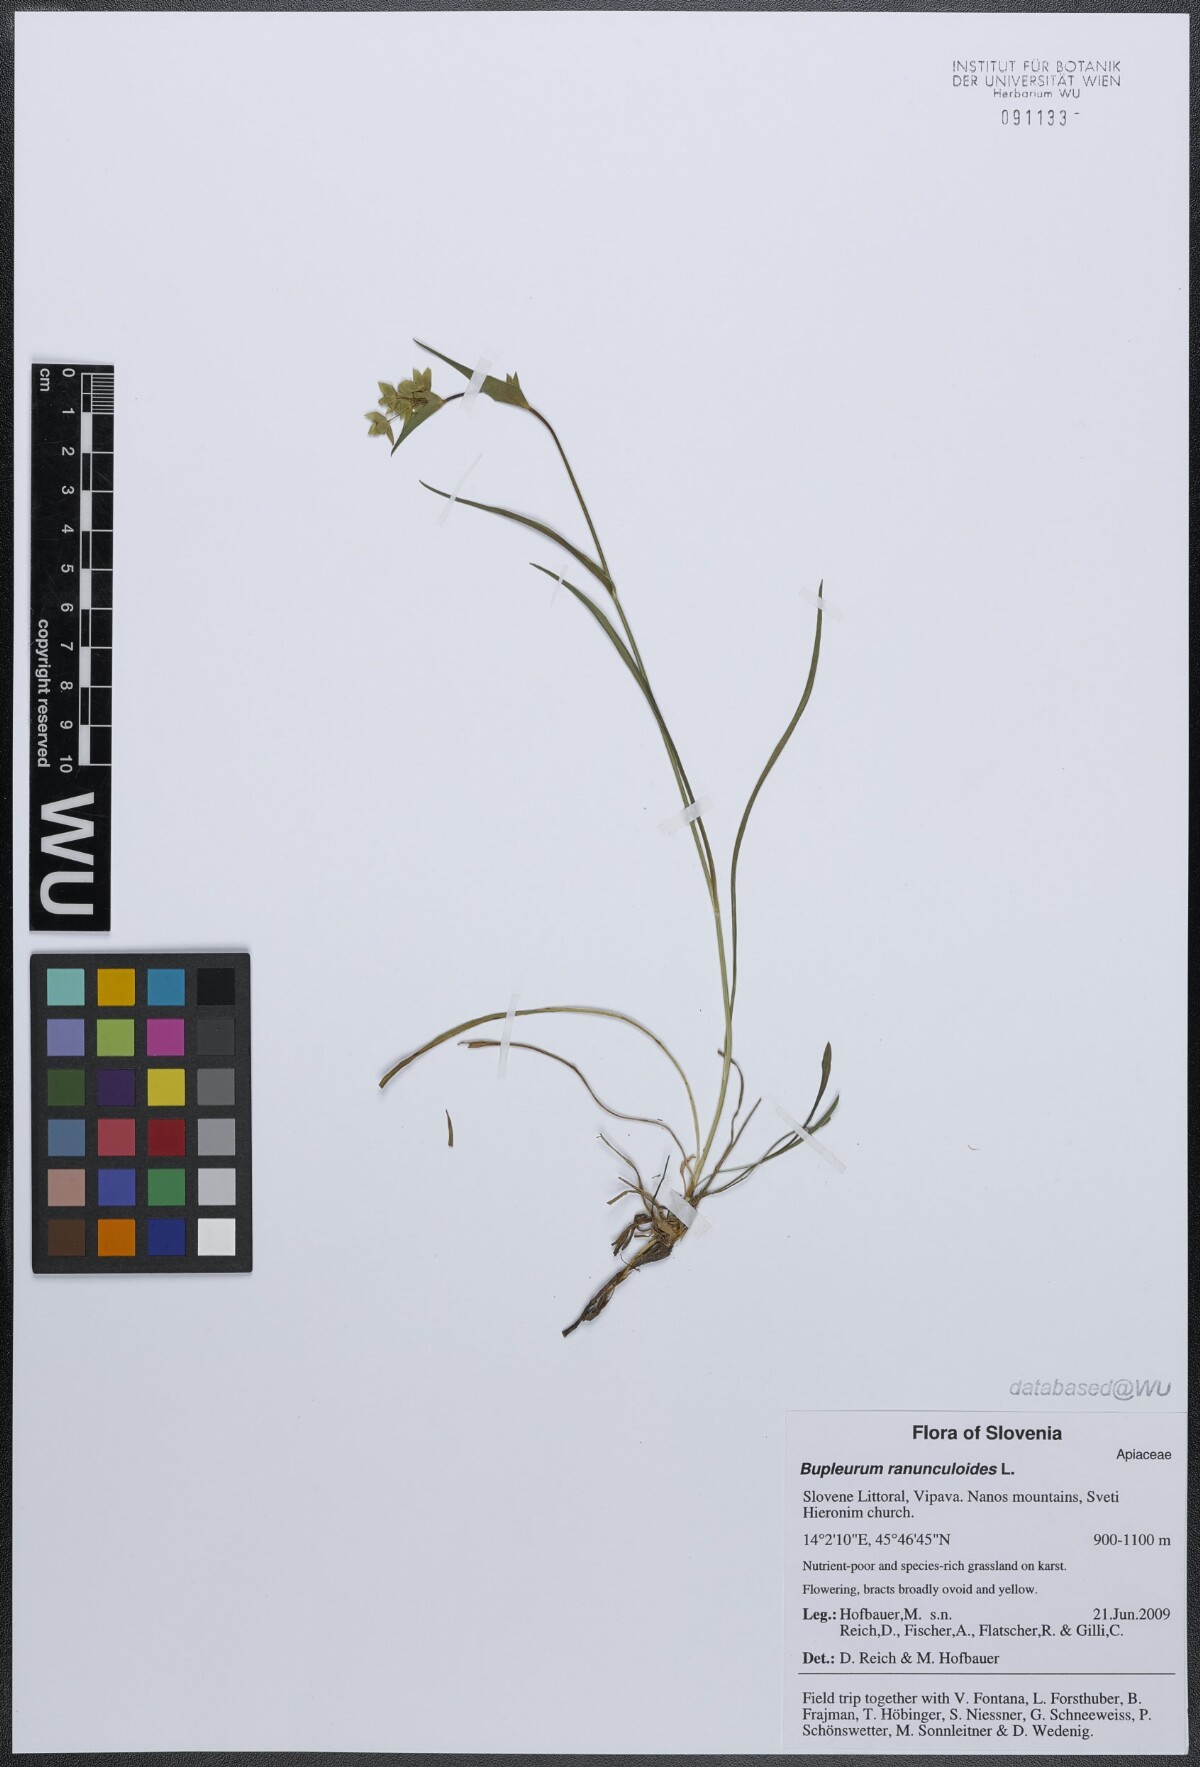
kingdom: Plantae
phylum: Tracheophyta
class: Magnoliopsida
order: Apiales
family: Apiaceae
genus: Bupleurum
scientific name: Bupleurum ranunculoides
